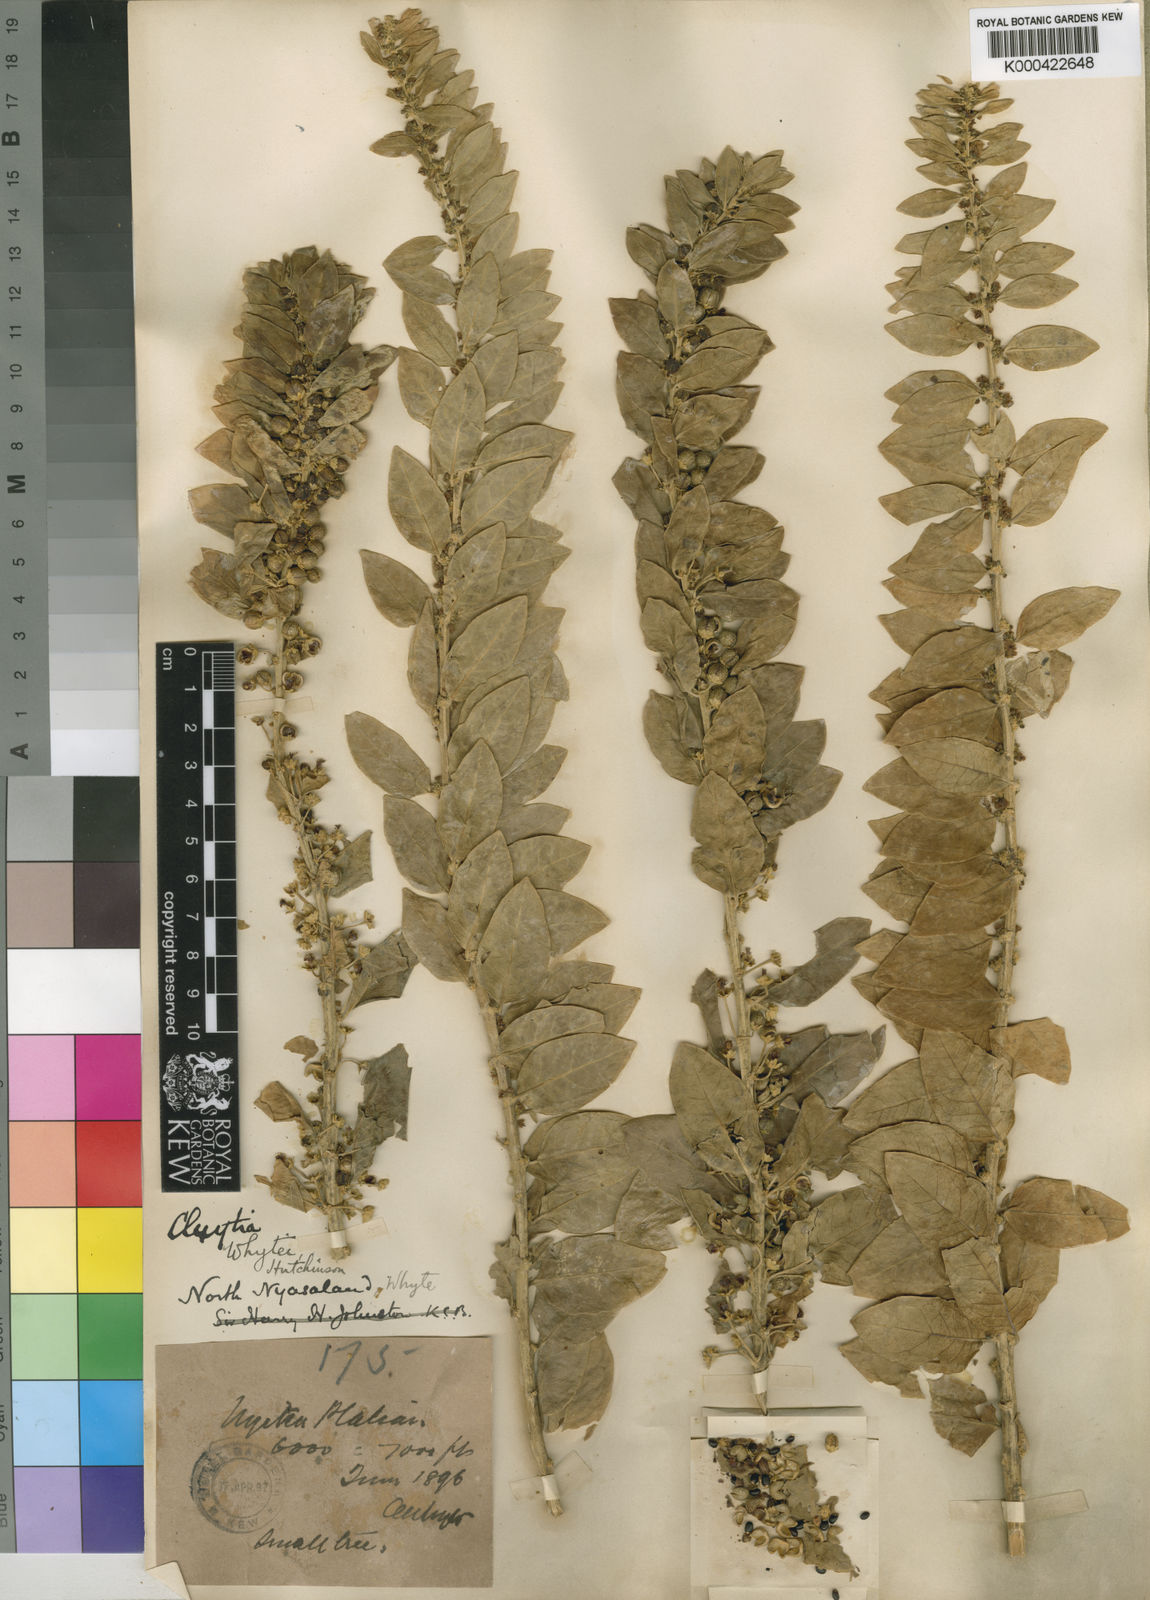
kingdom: Plantae
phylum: Tracheophyta
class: Magnoliopsida
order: Malpighiales
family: Peraceae
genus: Clutia
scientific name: Clutia whytei
